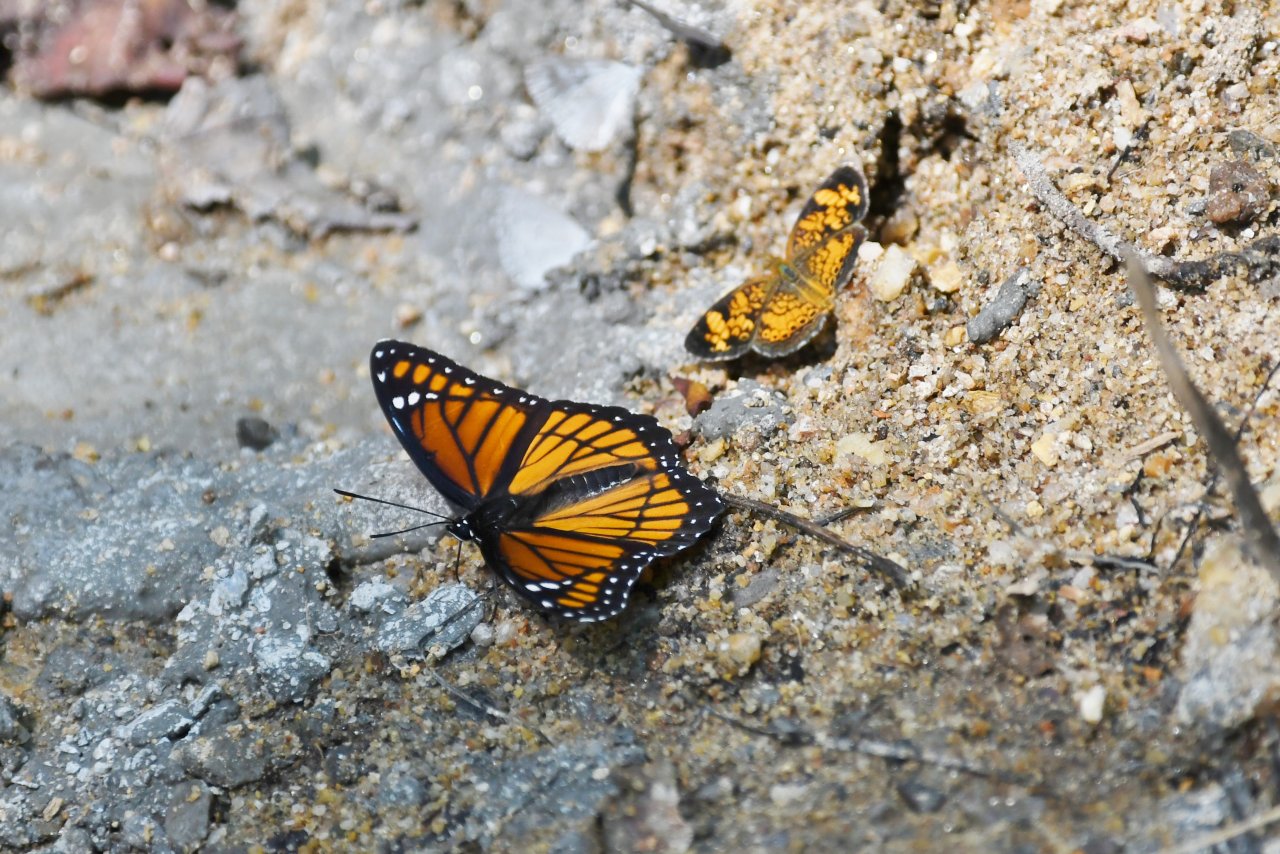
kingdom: Animalia
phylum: Arthropoda
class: Insecta
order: Lepidoptera
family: Nymphalidae
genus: Limenitis
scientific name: Limenitis archippus
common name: Viceroy
